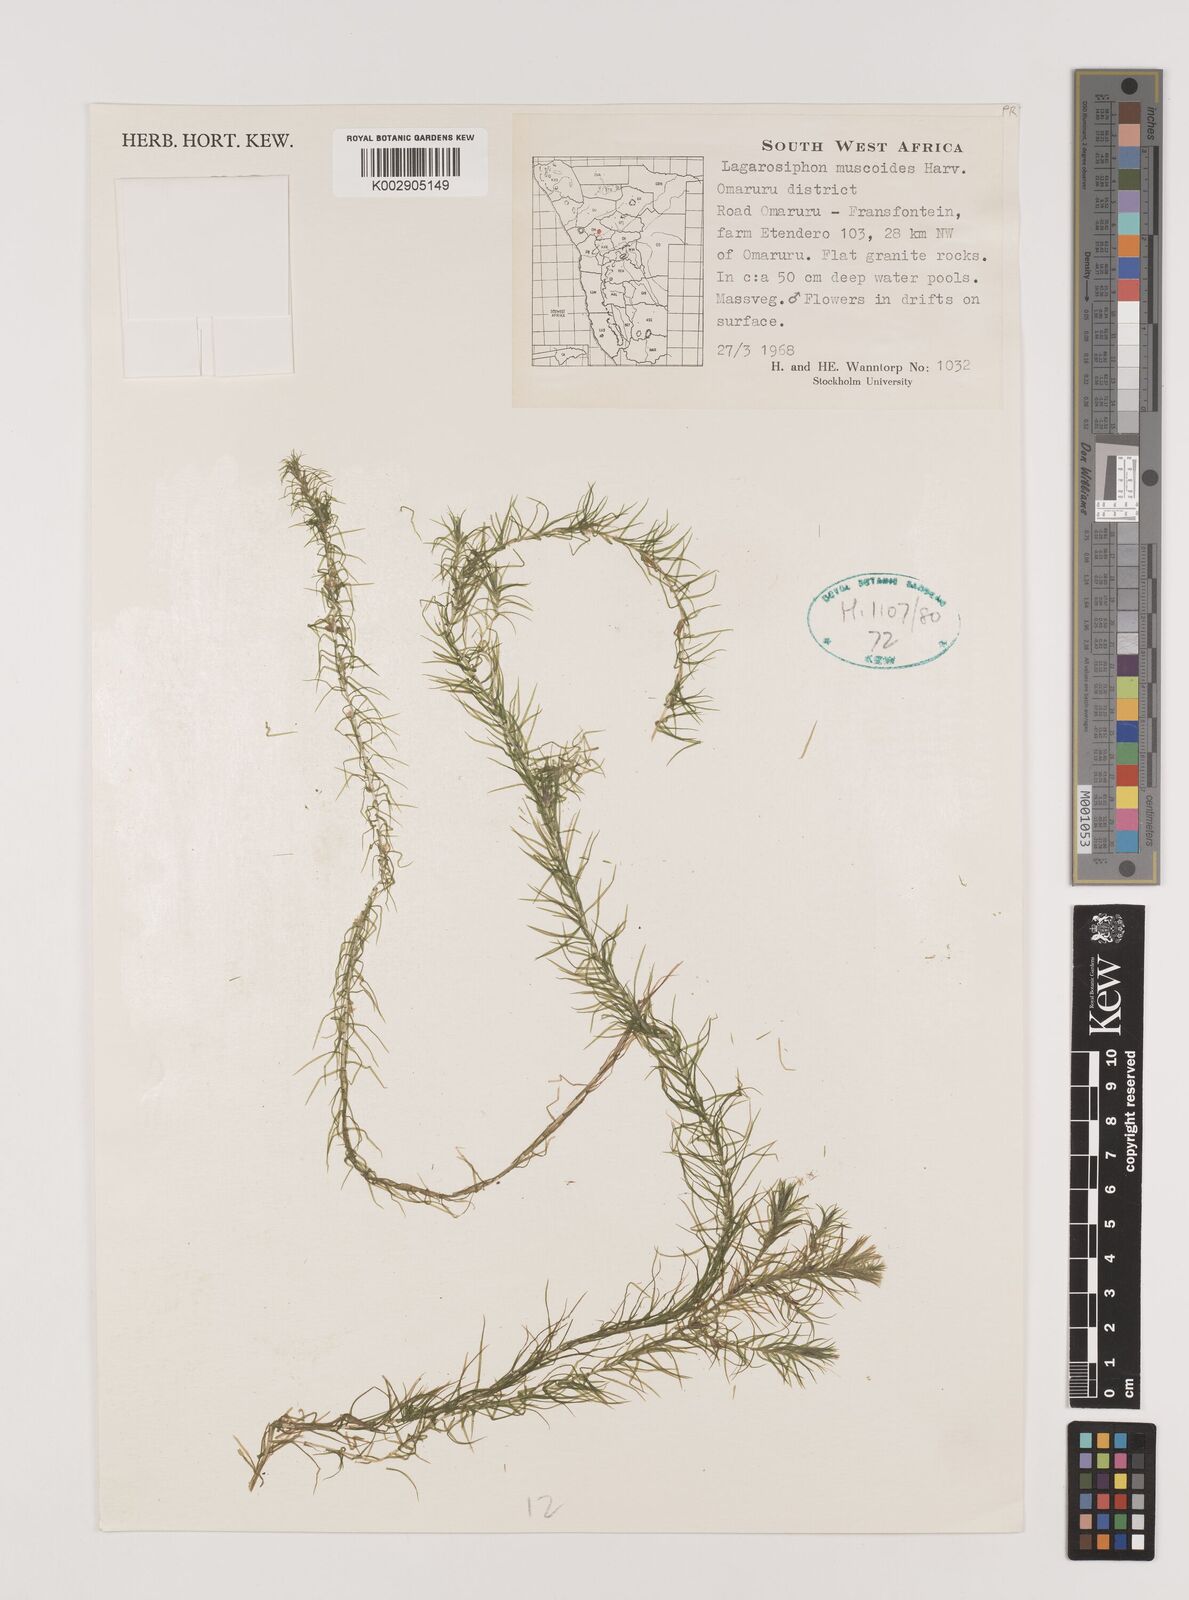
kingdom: Plantae
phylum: Tracheophyta
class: Liliopsida
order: Alismatales
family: Hydrocharitaceae
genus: Lagarosiphon
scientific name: Lagarosiphon muscoides
